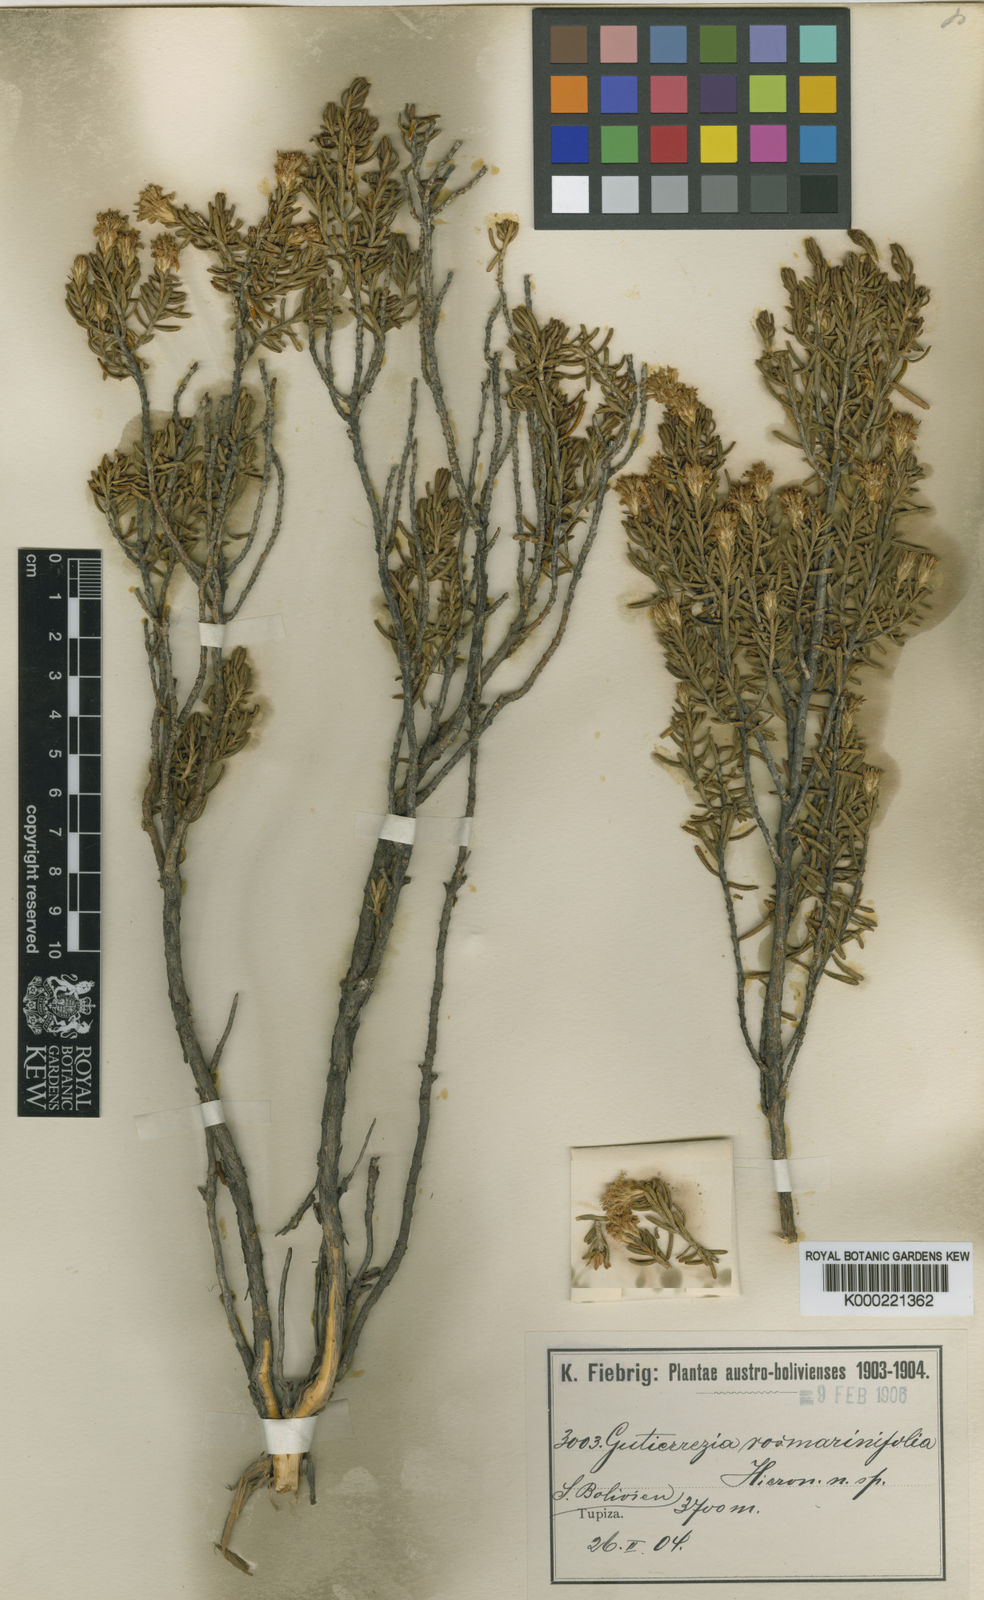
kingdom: Plantae
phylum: Tracheophyta
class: Magnoliopsida
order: Asterales
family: Asteraceae
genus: Gutierrezia
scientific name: Gutierrezia mandonii
